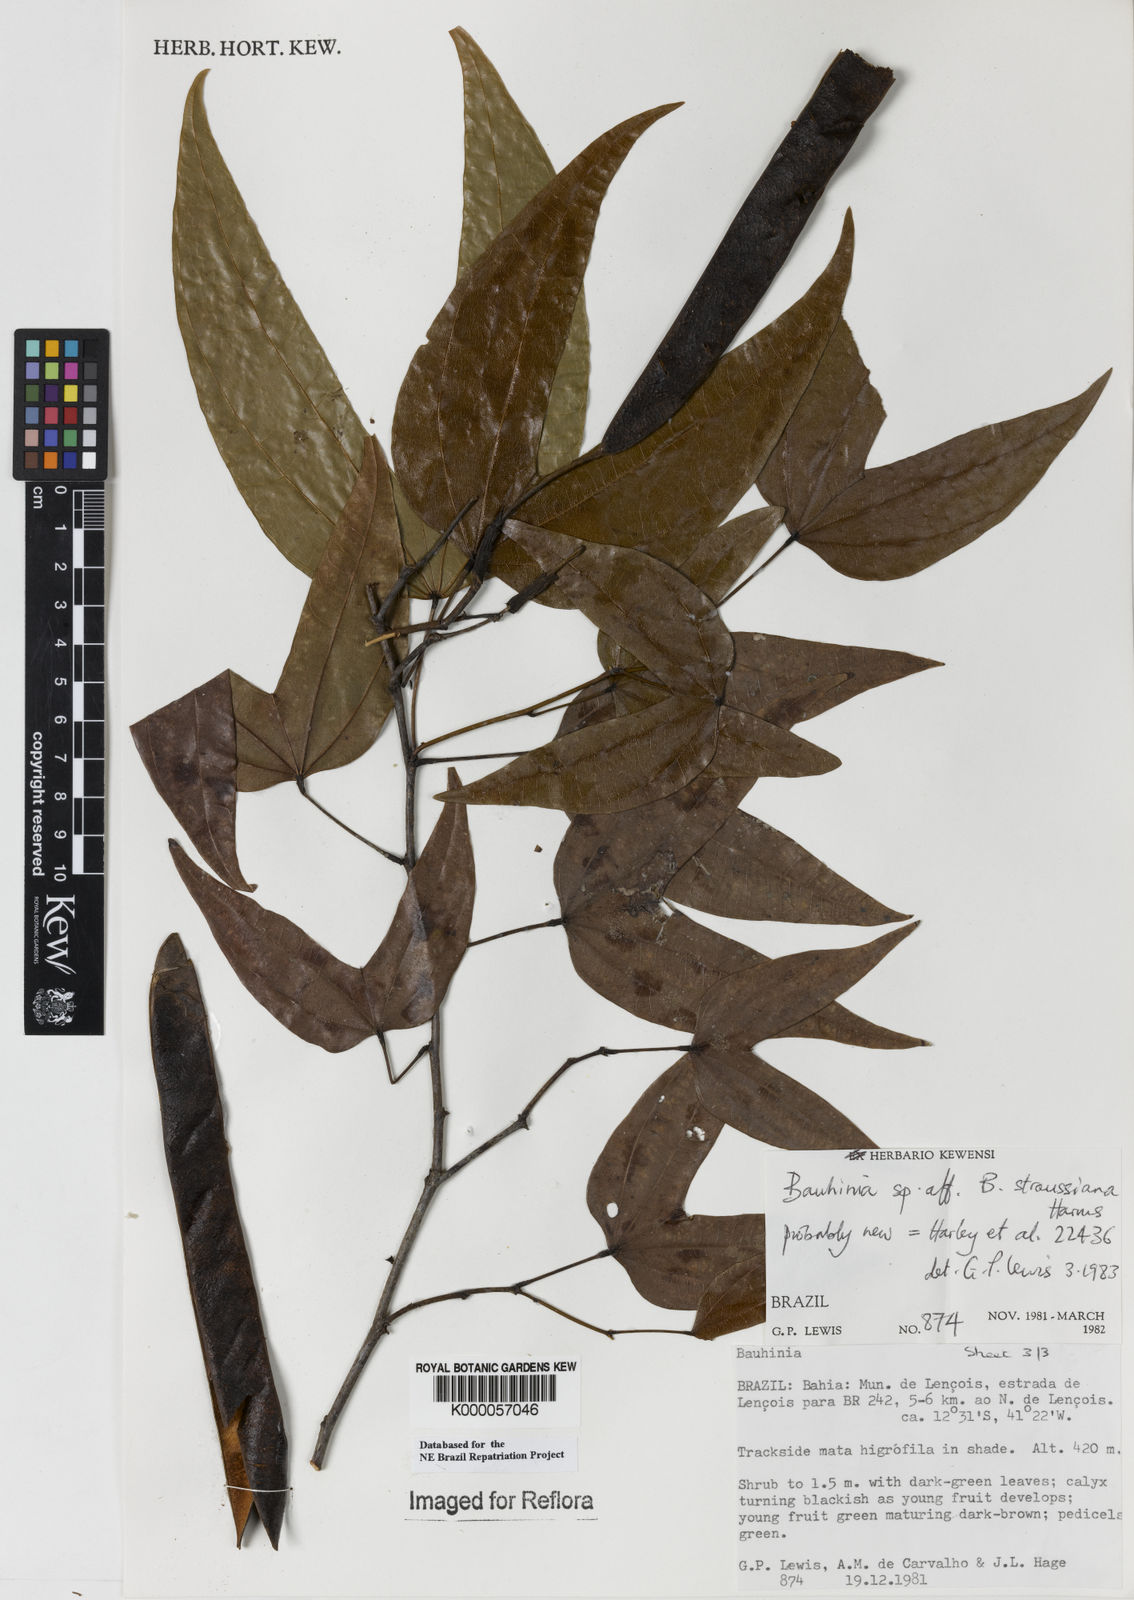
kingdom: Plantae
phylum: Tracheophyta
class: Magnoliopsida
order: Fabales
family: Fabaceae
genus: Bauhinia
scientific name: Bauhinia conwayi
